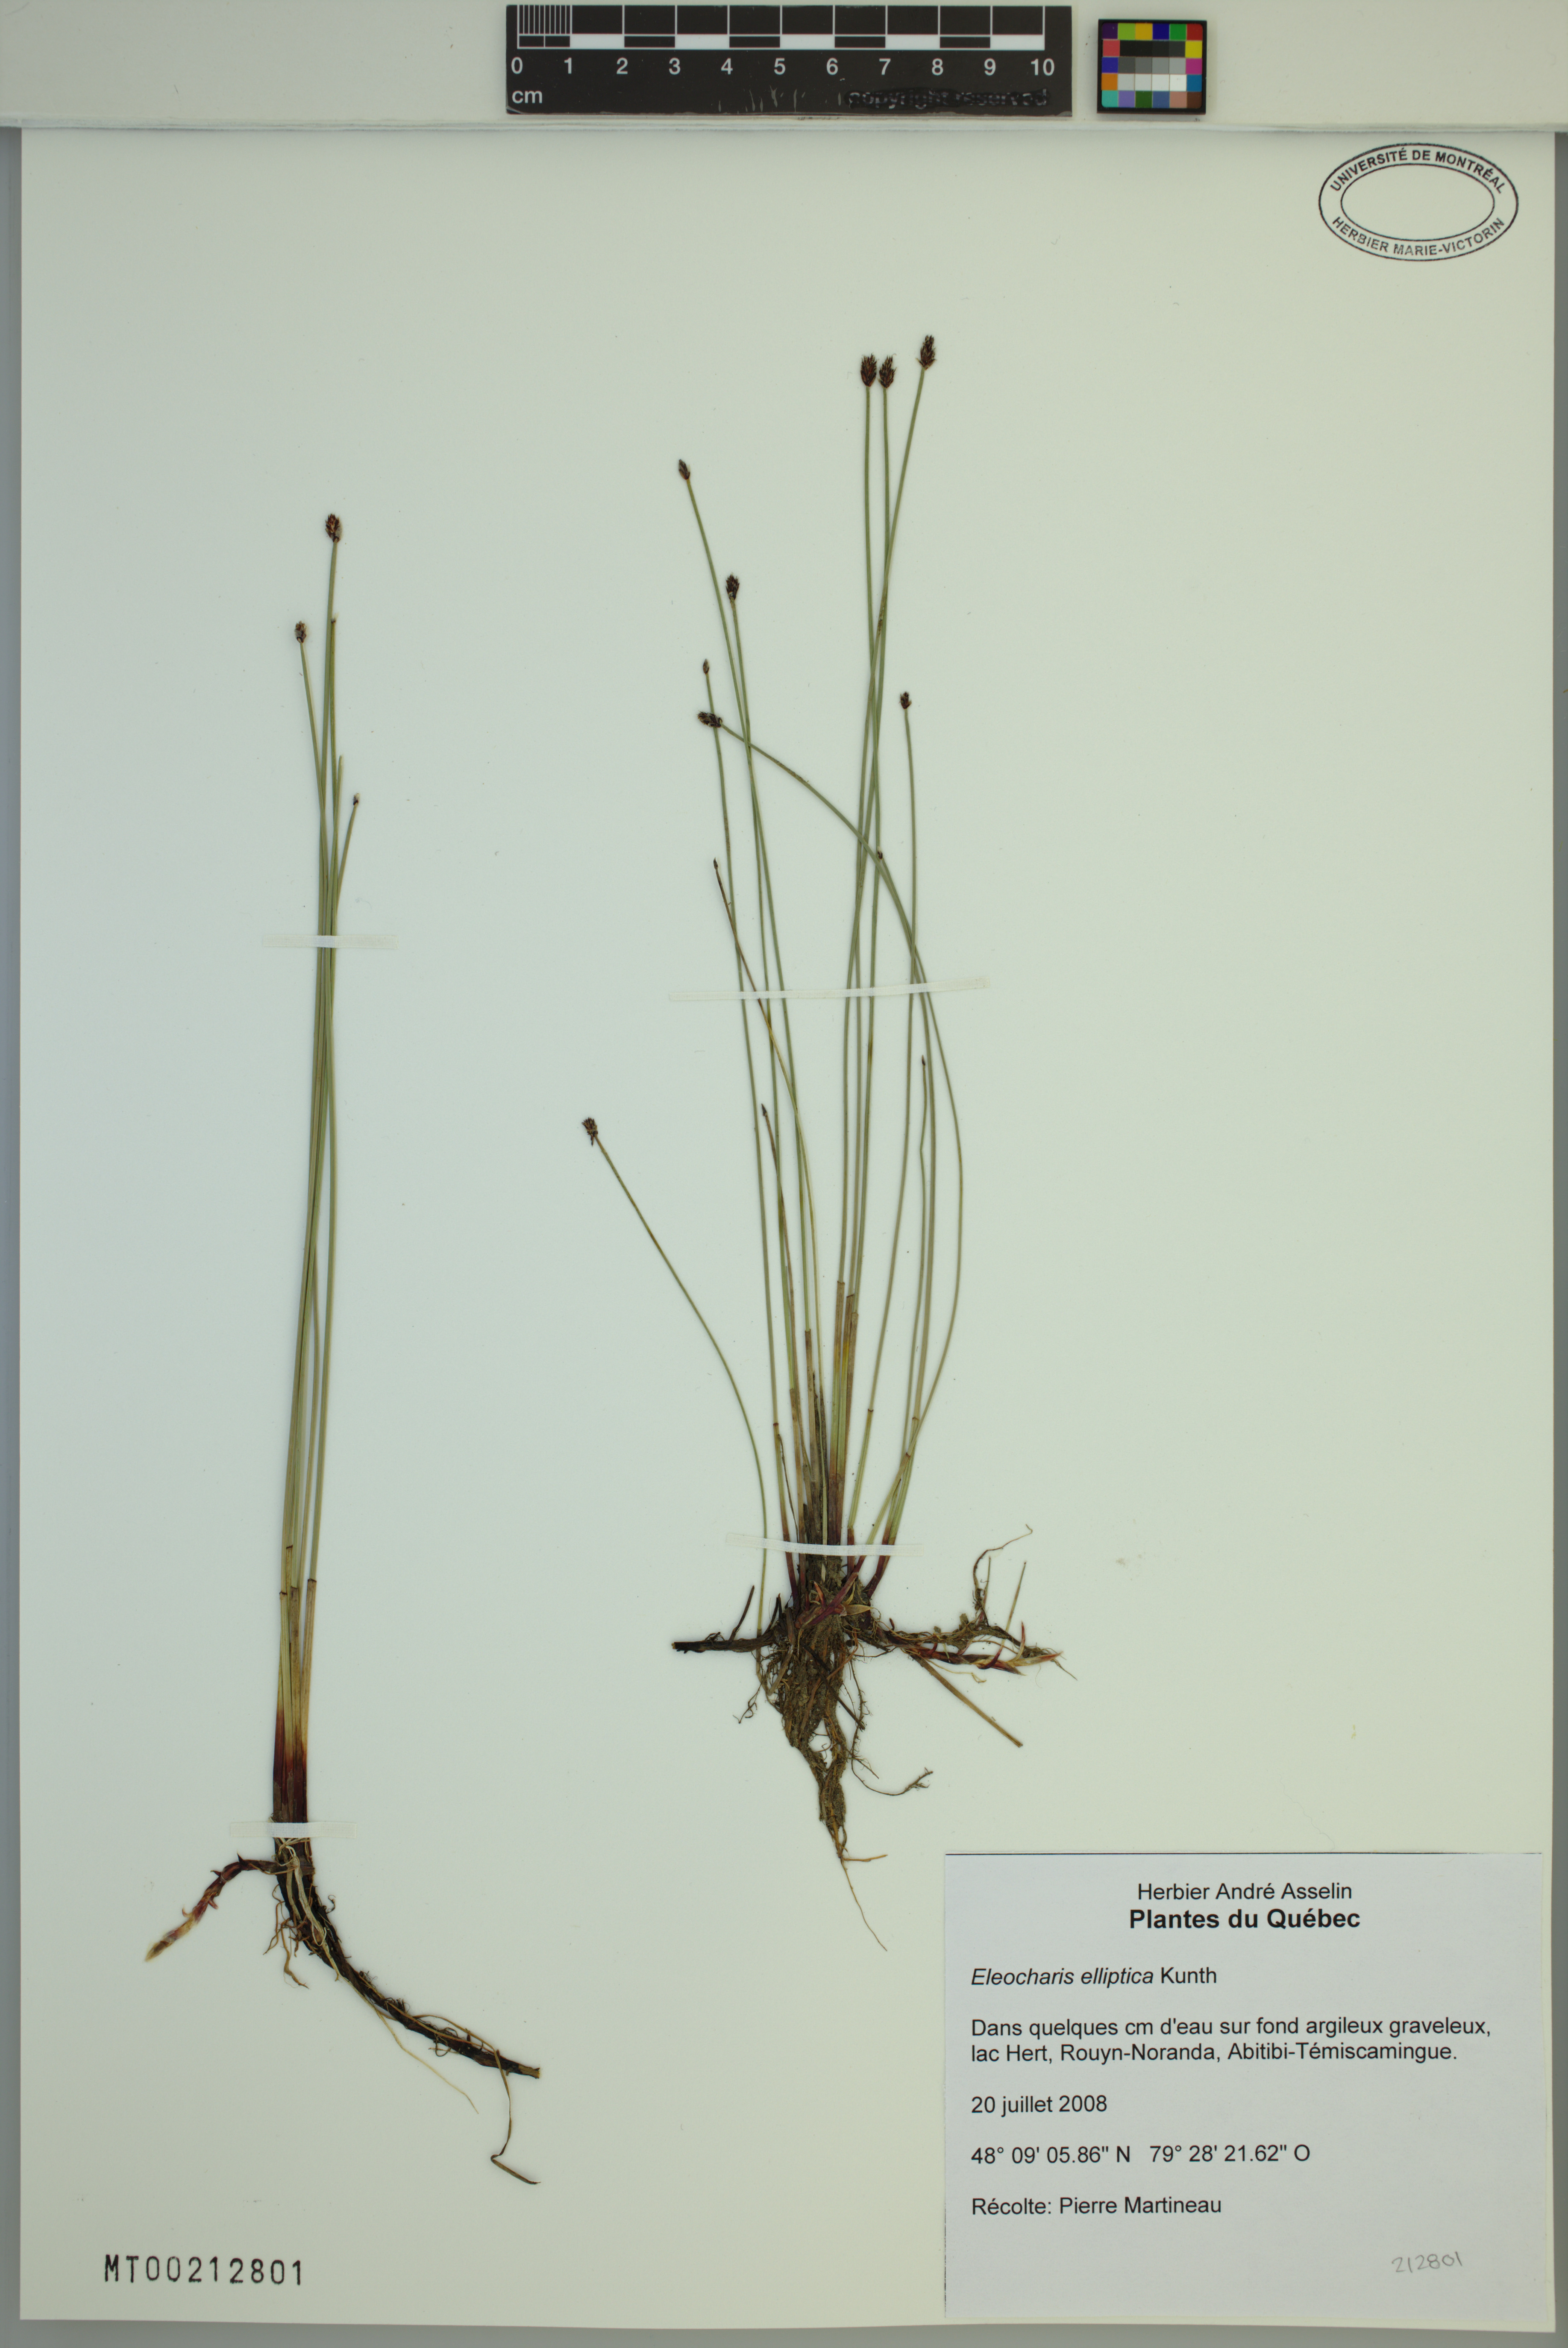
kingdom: Plantae
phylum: Tracheophyta
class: Liliopsida
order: Poales
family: Cyperaceae
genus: Eleocharis
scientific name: Eleocharis elliptica
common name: Capitate spikerush
